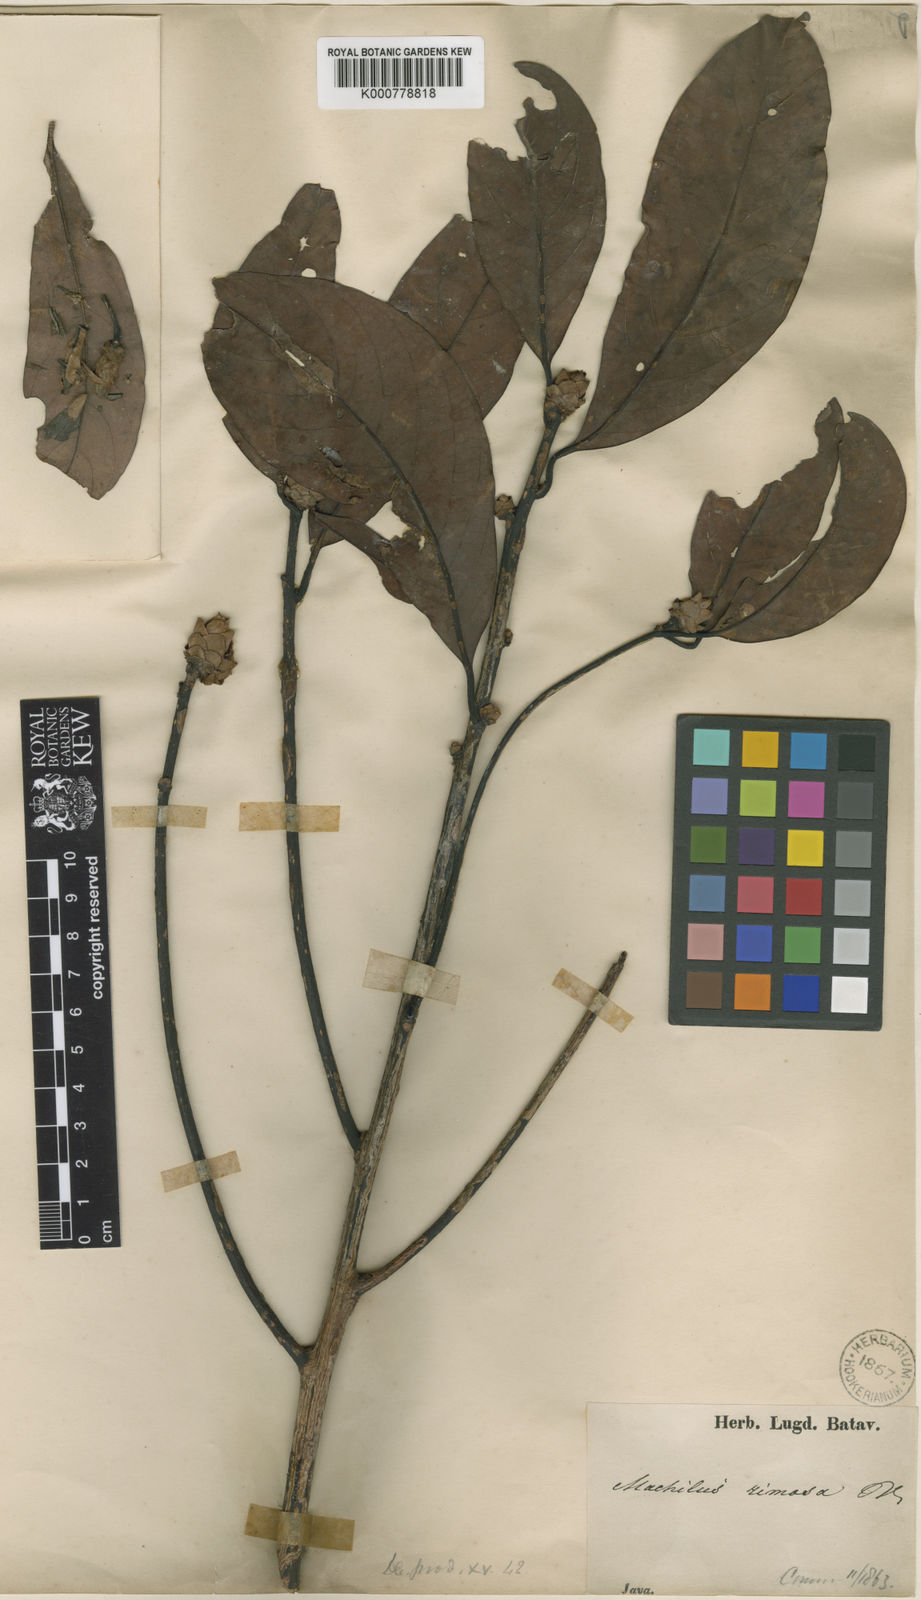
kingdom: Plantae
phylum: Tracheophyta
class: Magnoliopsida
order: Laurales
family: Lauraceae
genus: Machilus
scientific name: Machilus rimosus
